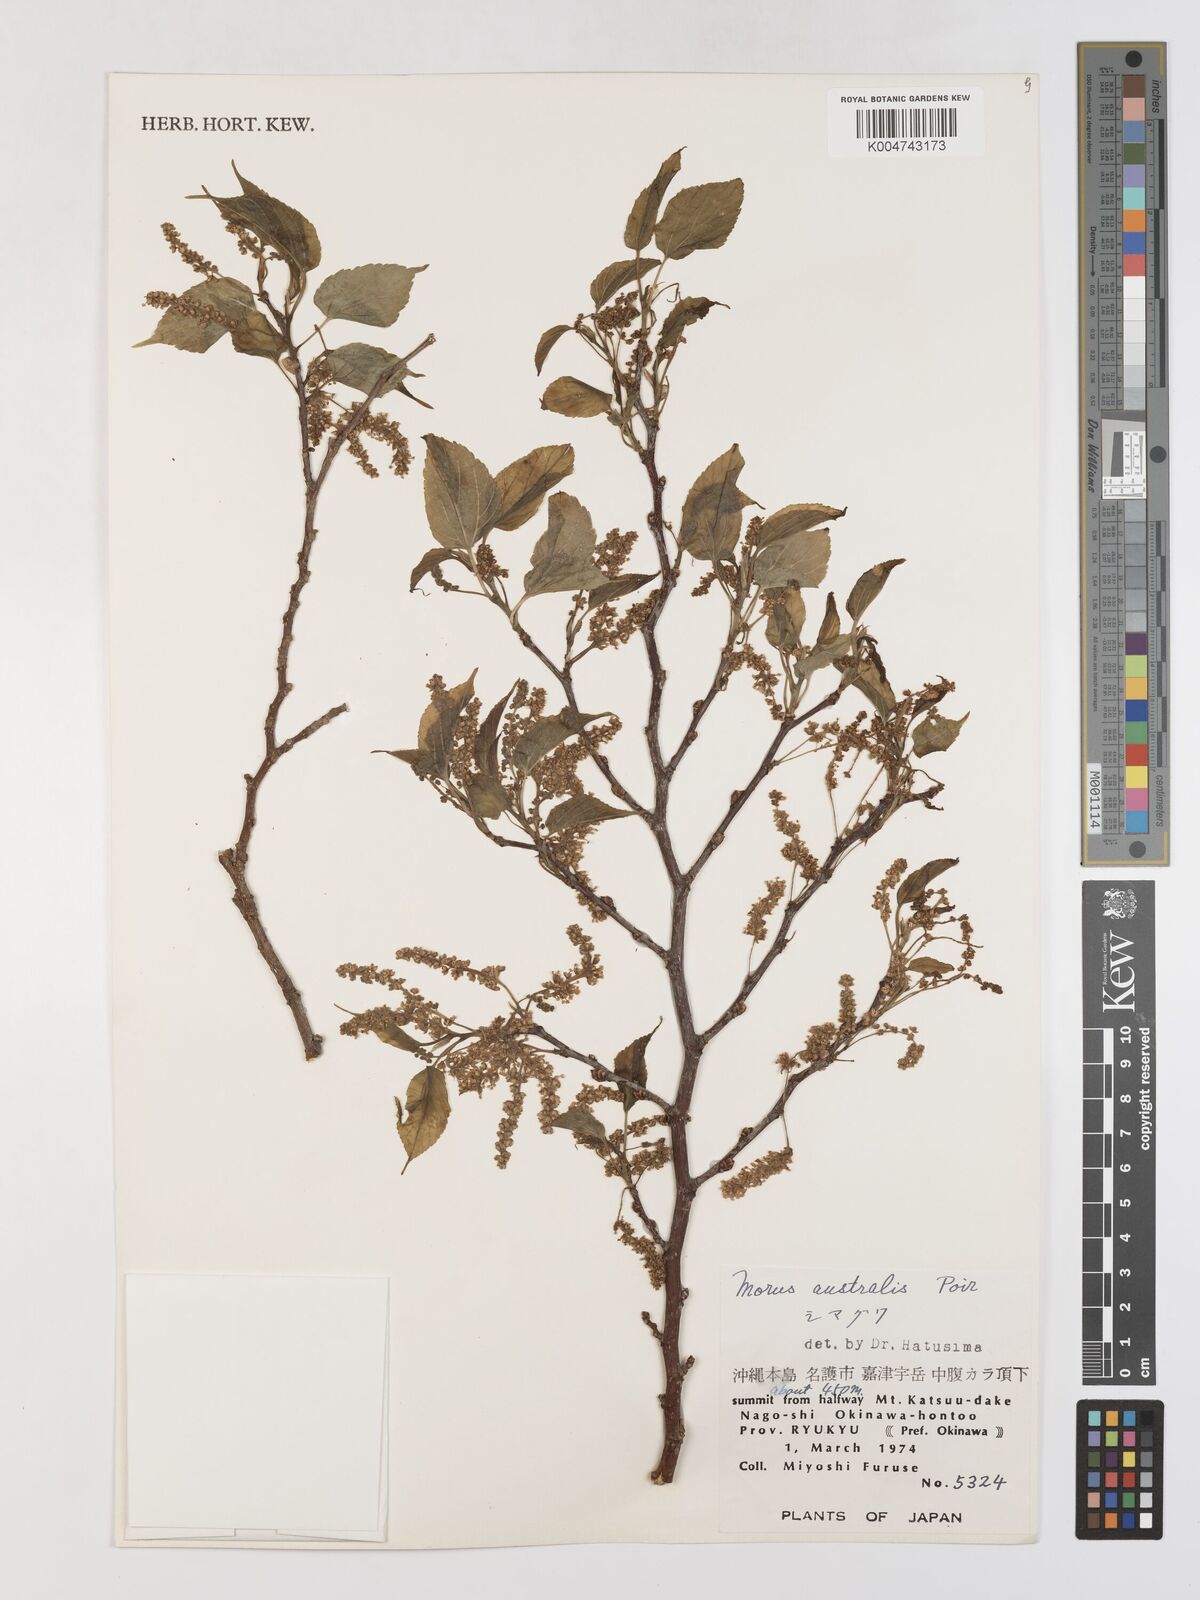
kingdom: Plantae
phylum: Tracheophyta
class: Magnoliopsida
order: Rosales
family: Moraceae
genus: Morus
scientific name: Morus indica
